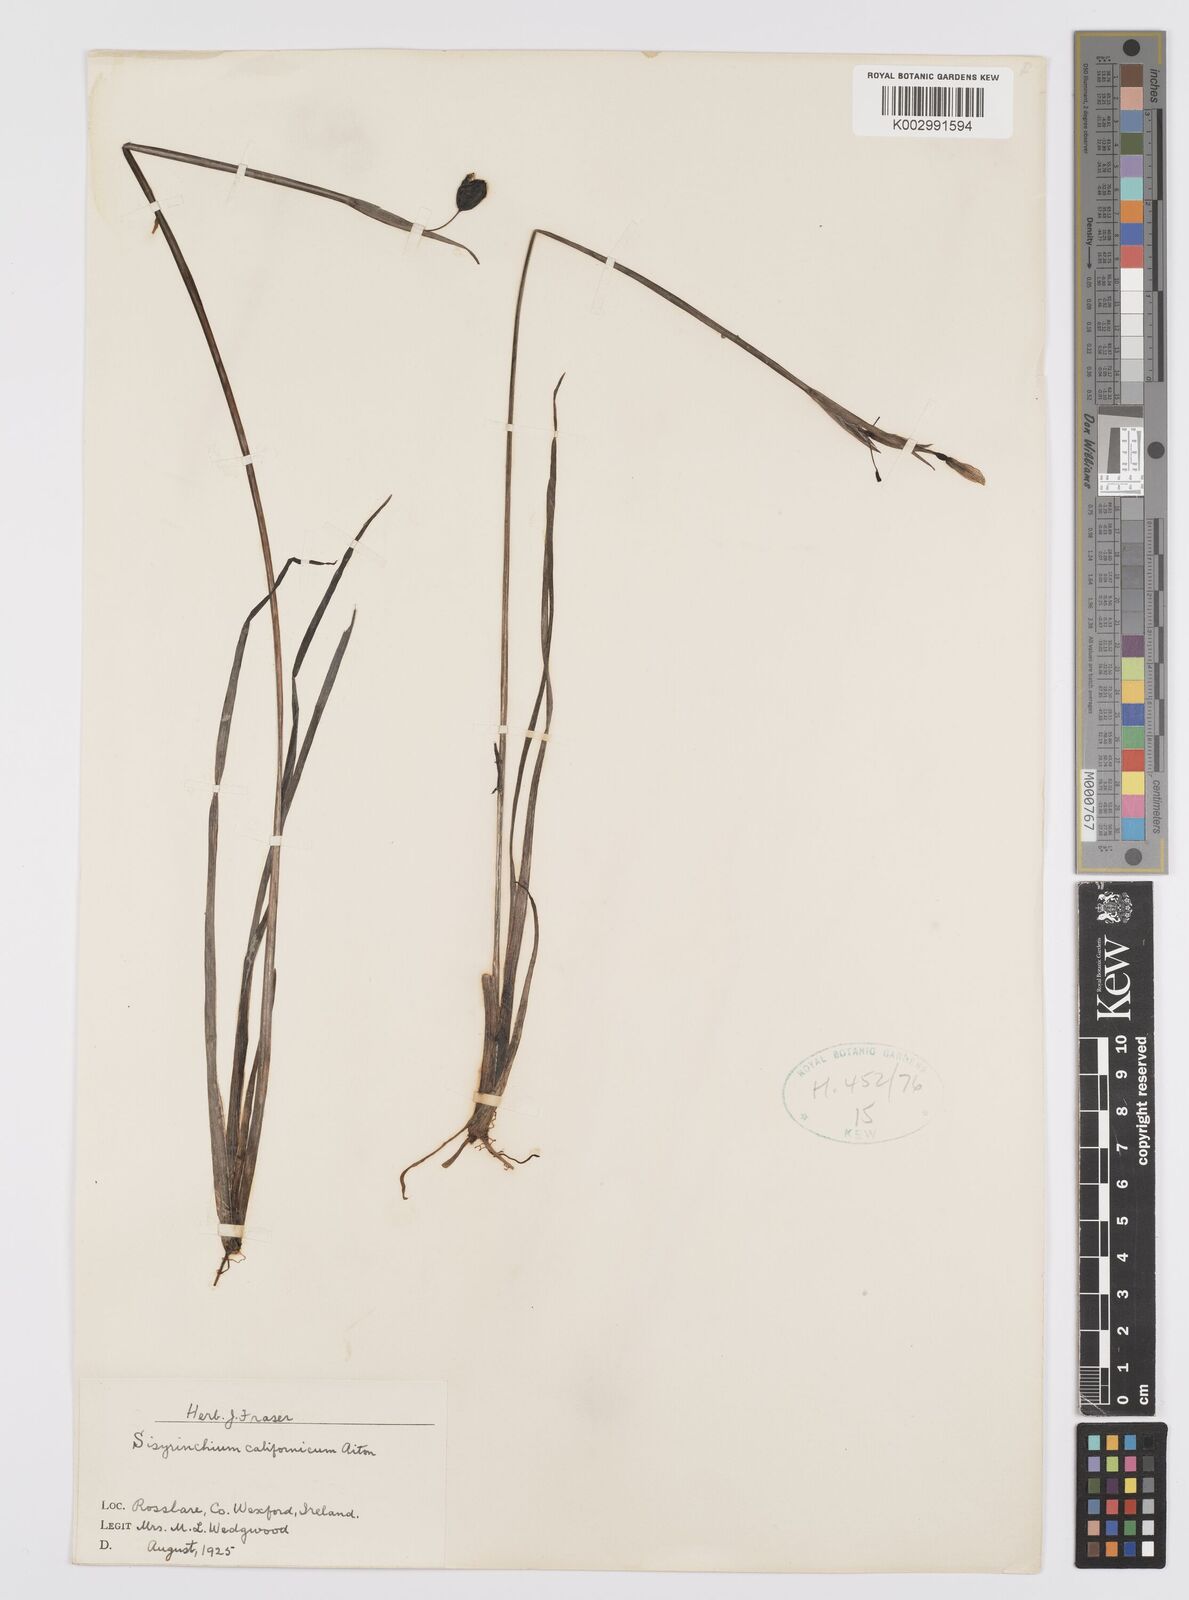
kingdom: Plantae
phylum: Tracheophyta
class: Liliopsida
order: Asparagales
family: Iridaceae
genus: Sisyrinchium
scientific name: Sisyrinchium californicum
